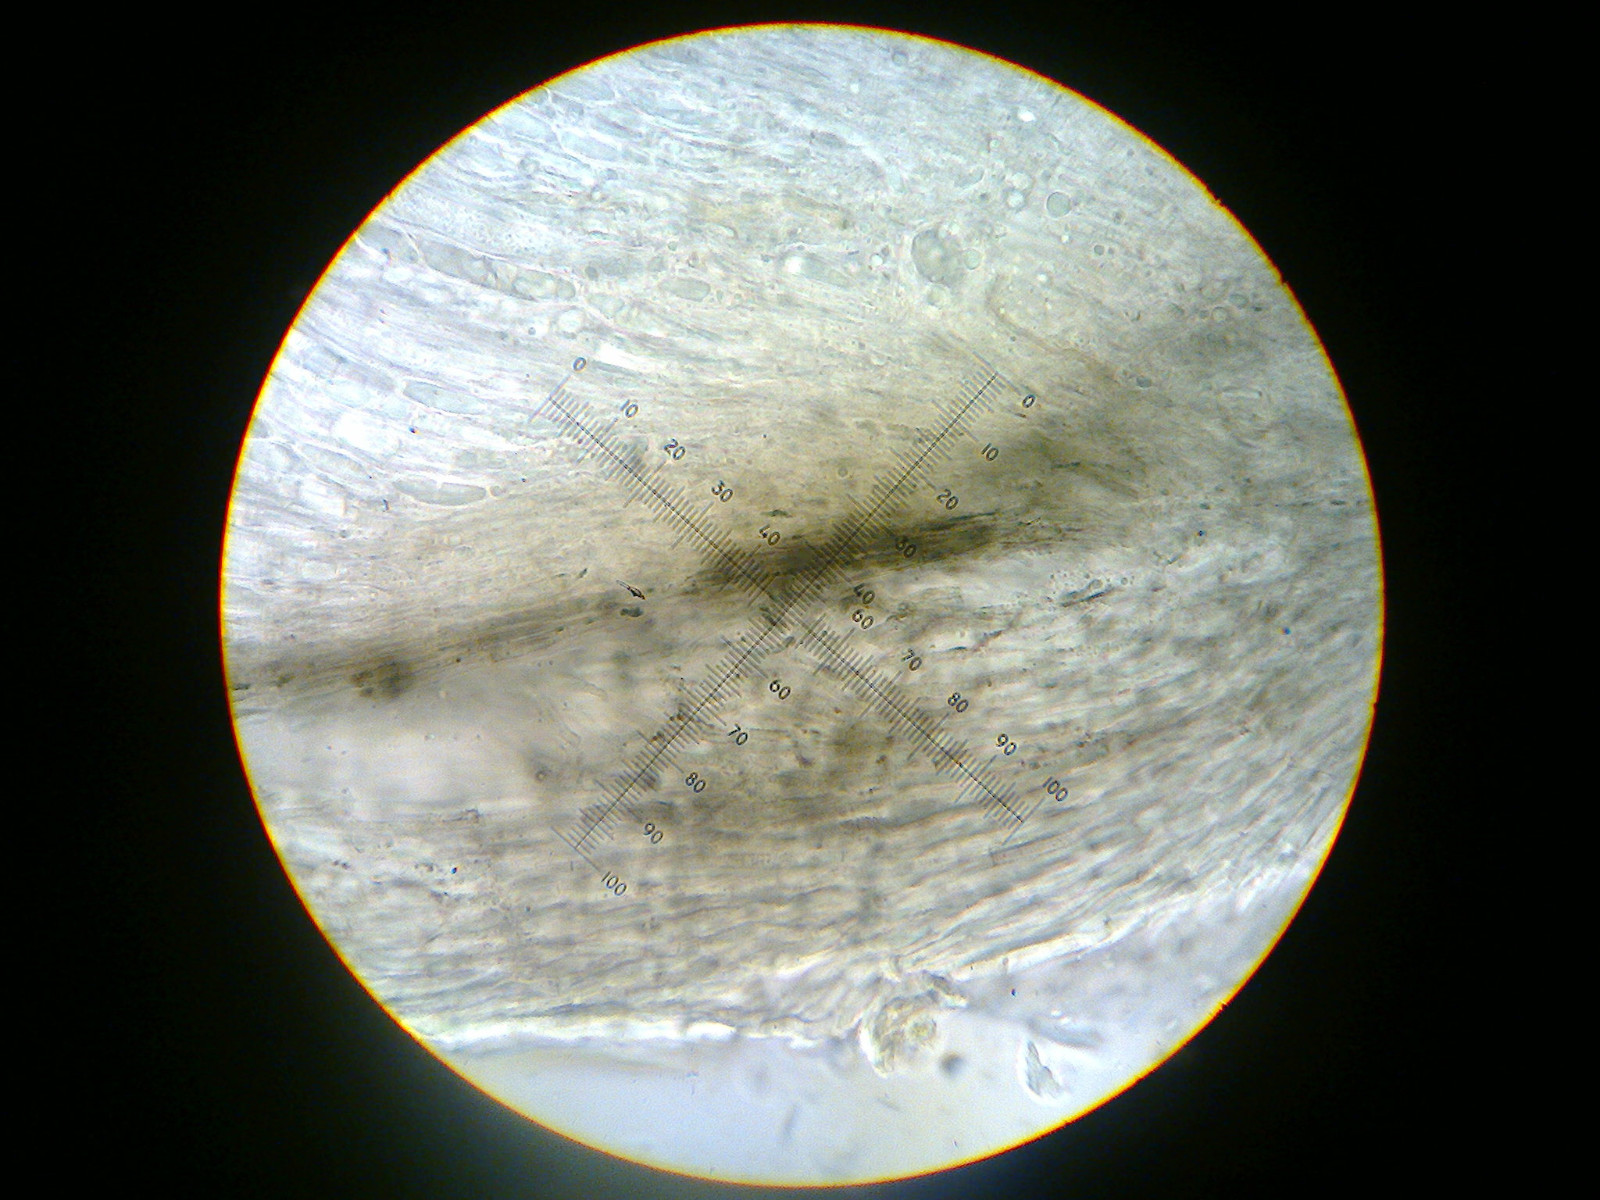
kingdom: Fungi
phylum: Ascomycota
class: Leotiomycetes
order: Helotiales
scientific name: Helotiales
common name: stilkskiveordenen
